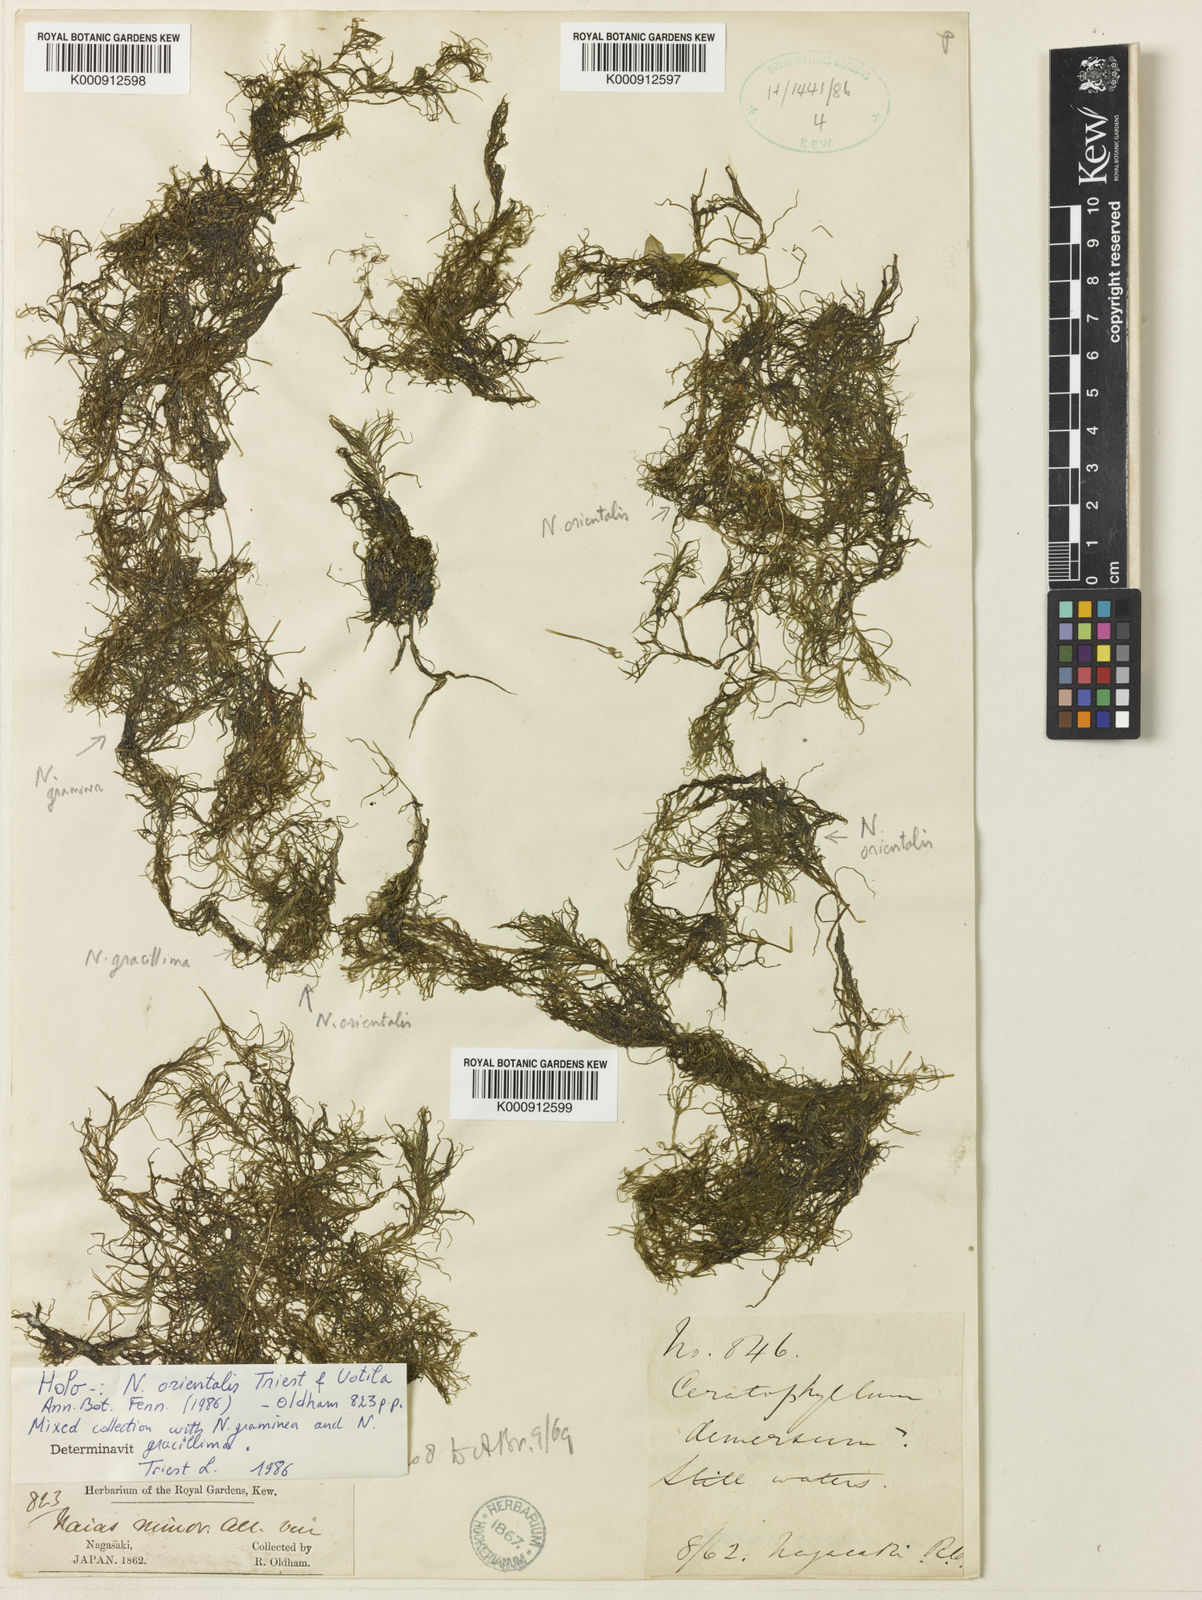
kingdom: Plantae
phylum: Tracheophyta
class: Liliopsida
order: Alismatales
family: Hydrocharitaceae
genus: Najas
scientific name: Najas chinensis
